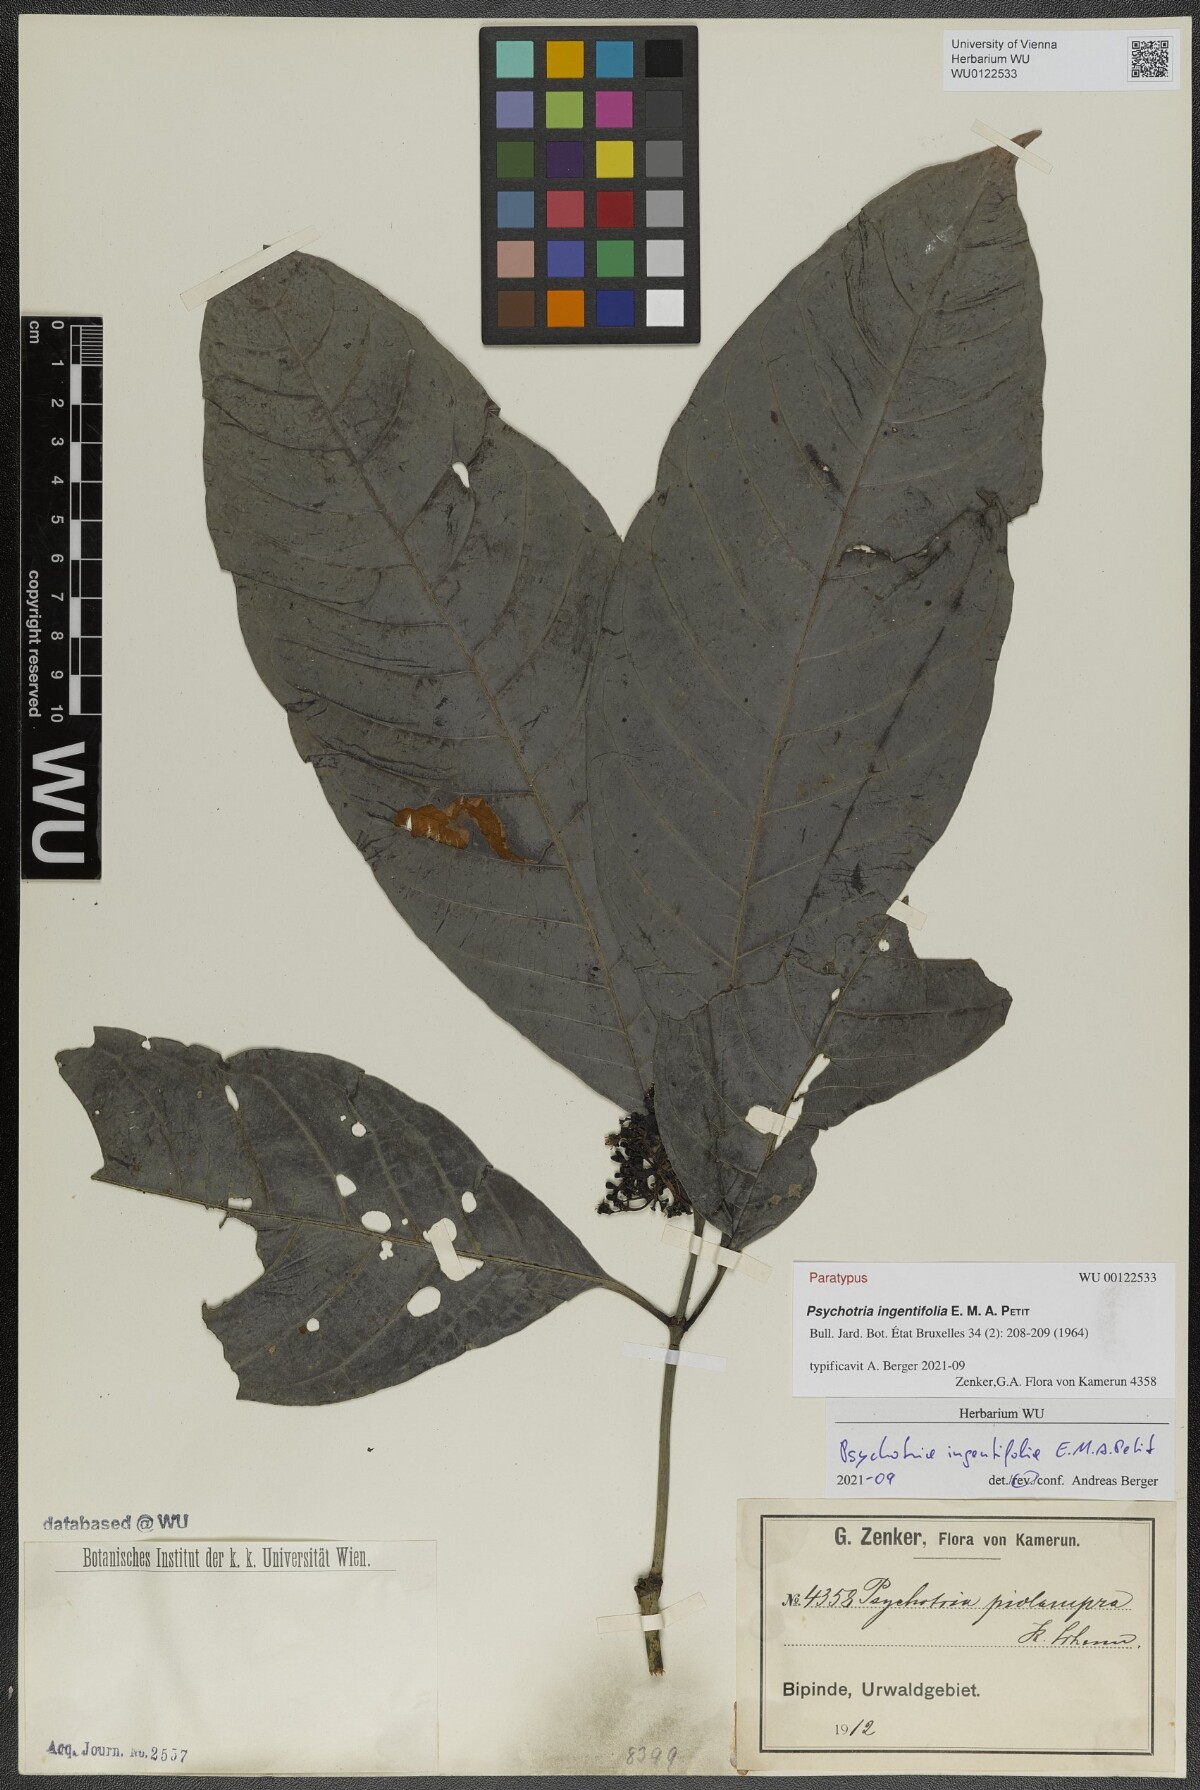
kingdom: Plantae
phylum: Tracheophyta
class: Magnoliopsida
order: Gentianales
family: Rubiaceae
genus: Psychotria
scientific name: Psychotria ingentifolia
